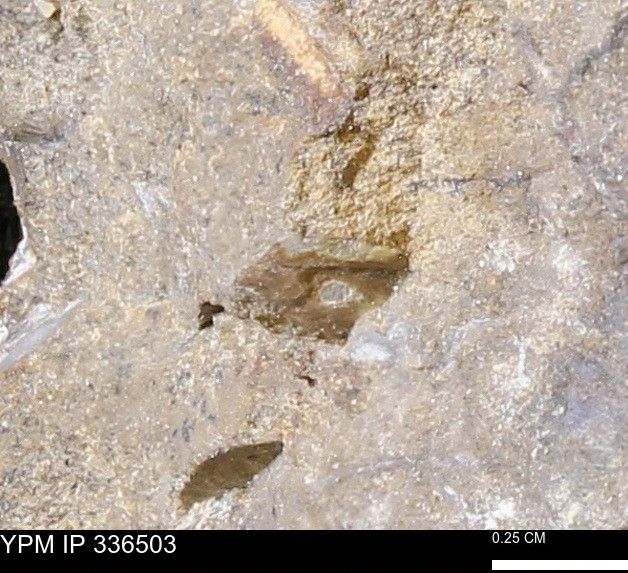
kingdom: Animalia
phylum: Mollusca
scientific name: Mollusca
